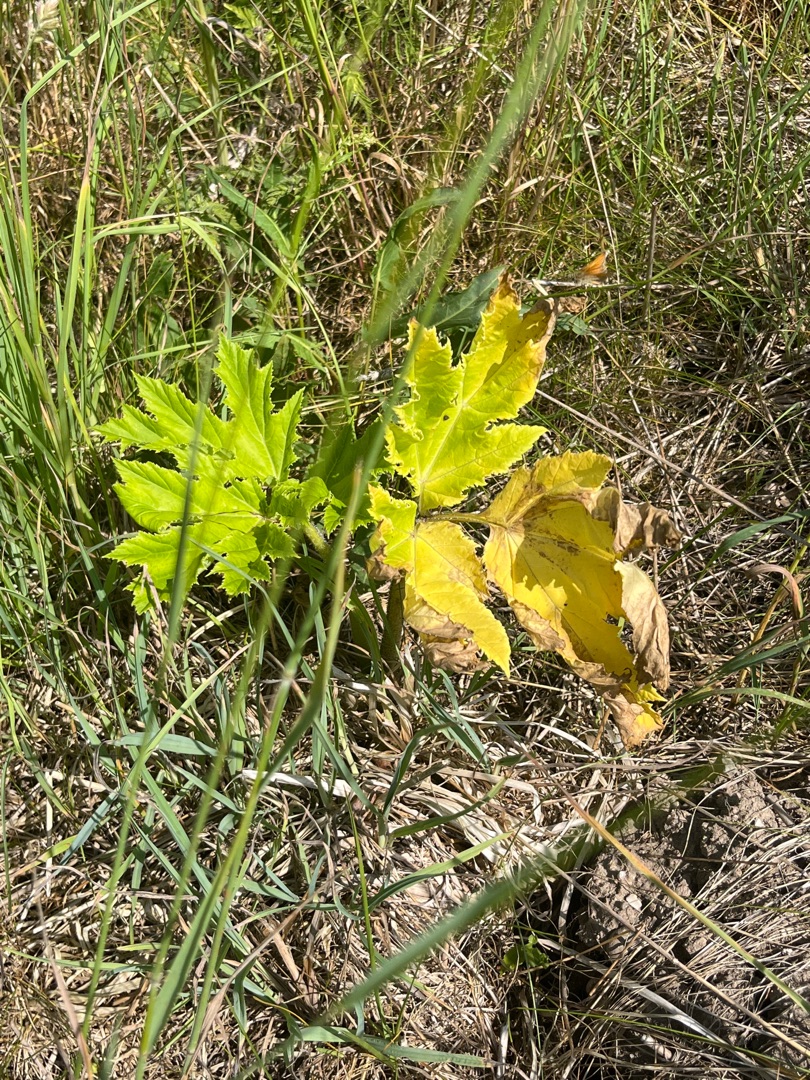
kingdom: Plantae
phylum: Tracheophyta
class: Magnoliopsida
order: Apiales
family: Apiaceae
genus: Heracleum
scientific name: Heracleum mantegazzianum
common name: Kæmpe-bjørneklo
